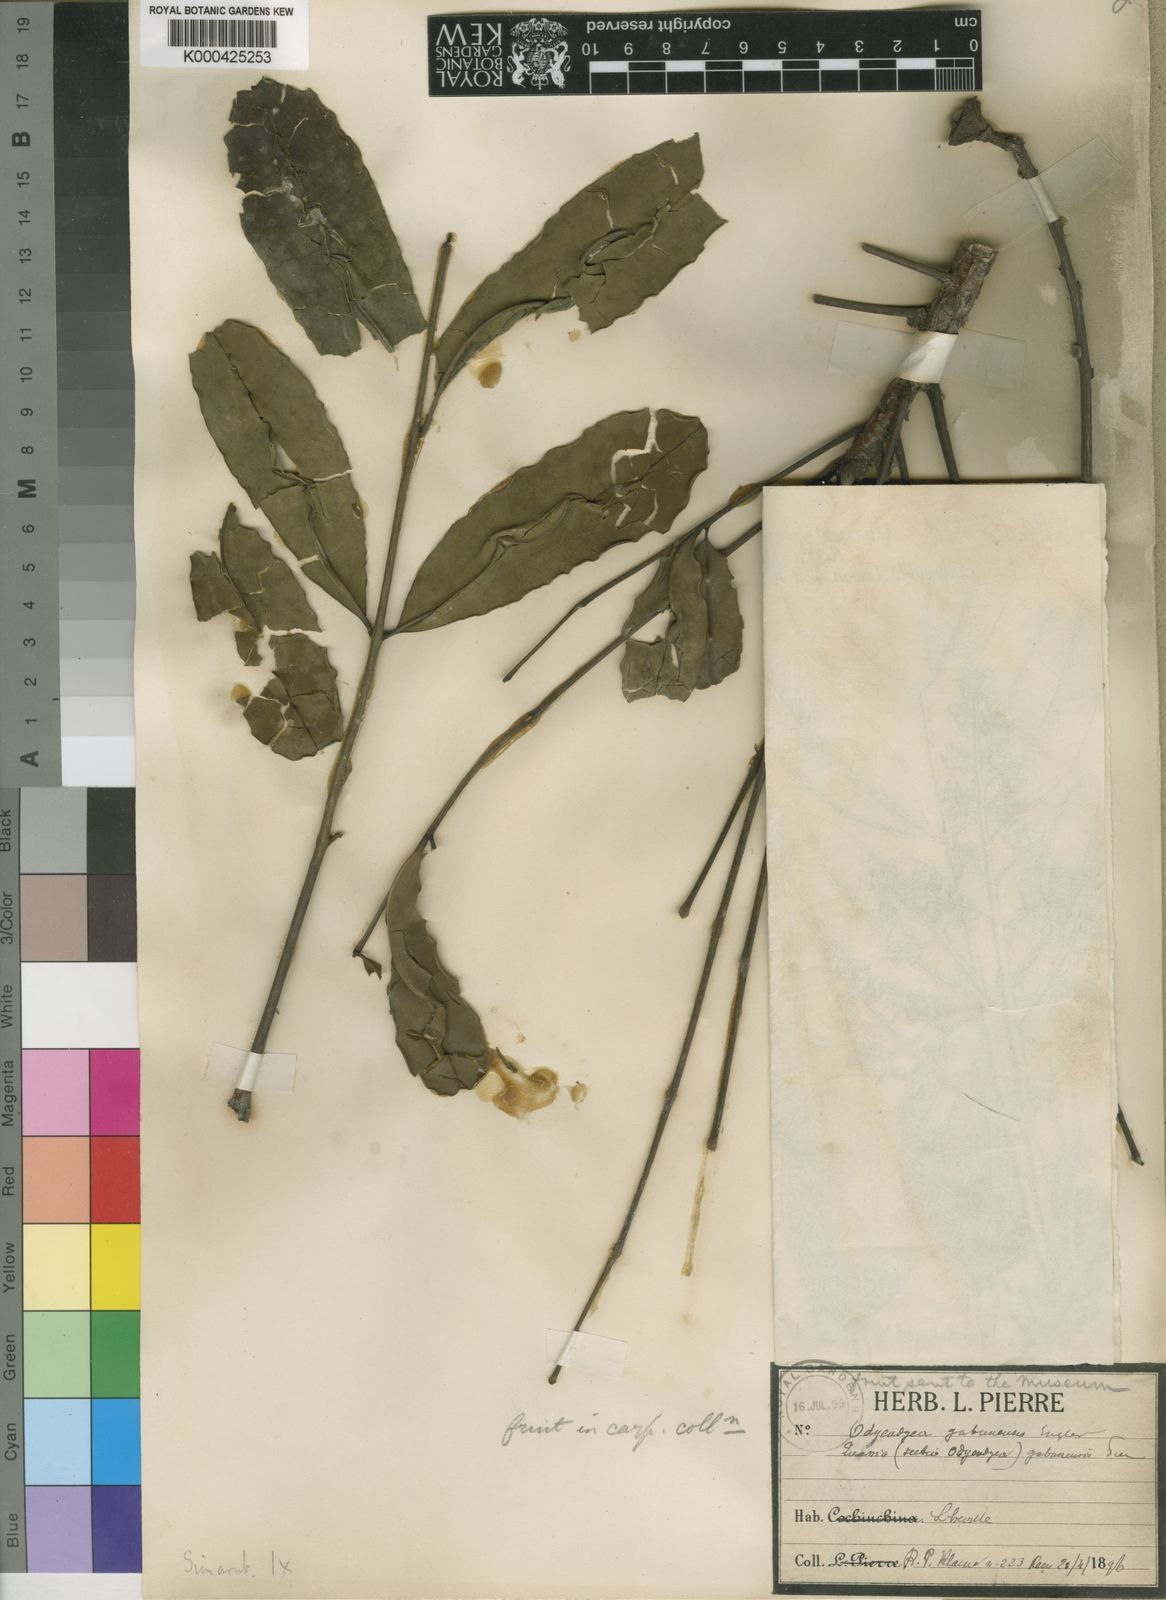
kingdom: Plantae
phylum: Tracheophyta
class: Magnoliopsida
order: Sapindales
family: Simaroubaceae
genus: Odyendyea
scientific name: Odyendyea gabonensis
